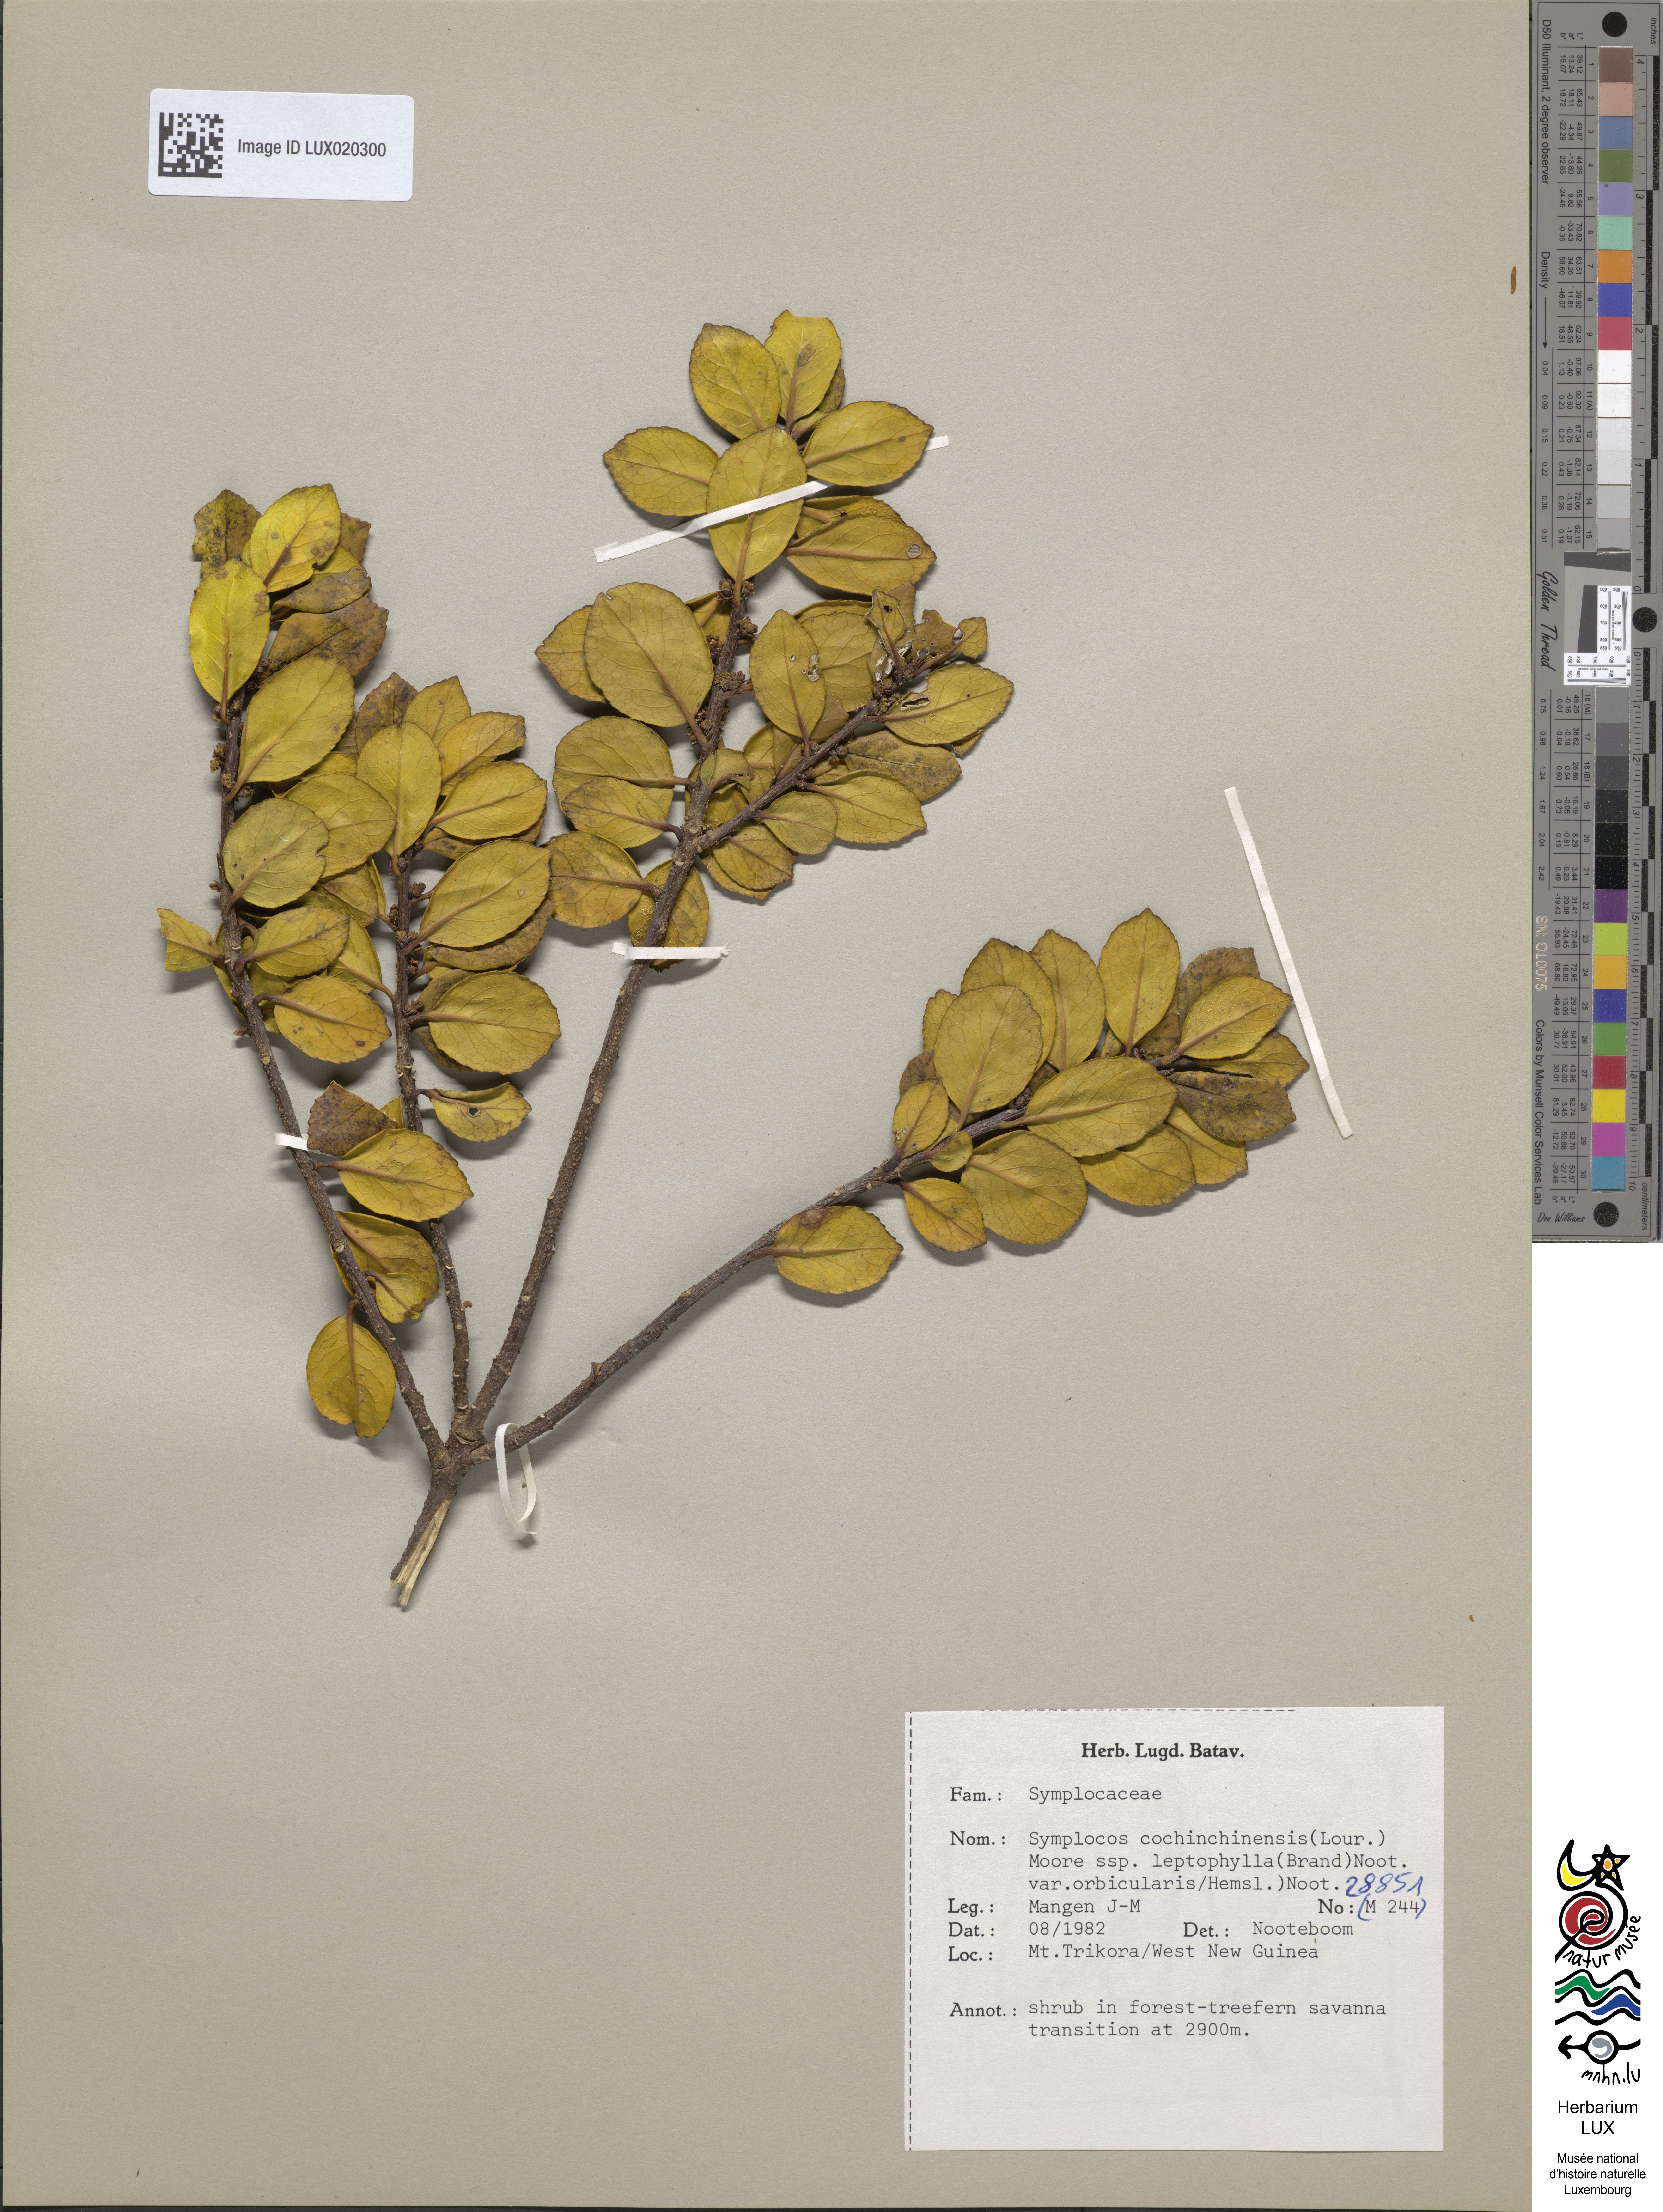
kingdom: Plantae
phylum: Tracheophyta
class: Magnoliopsida
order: Ericales
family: Symplocaceae
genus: Symplocos
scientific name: Symplocos orbicularis
